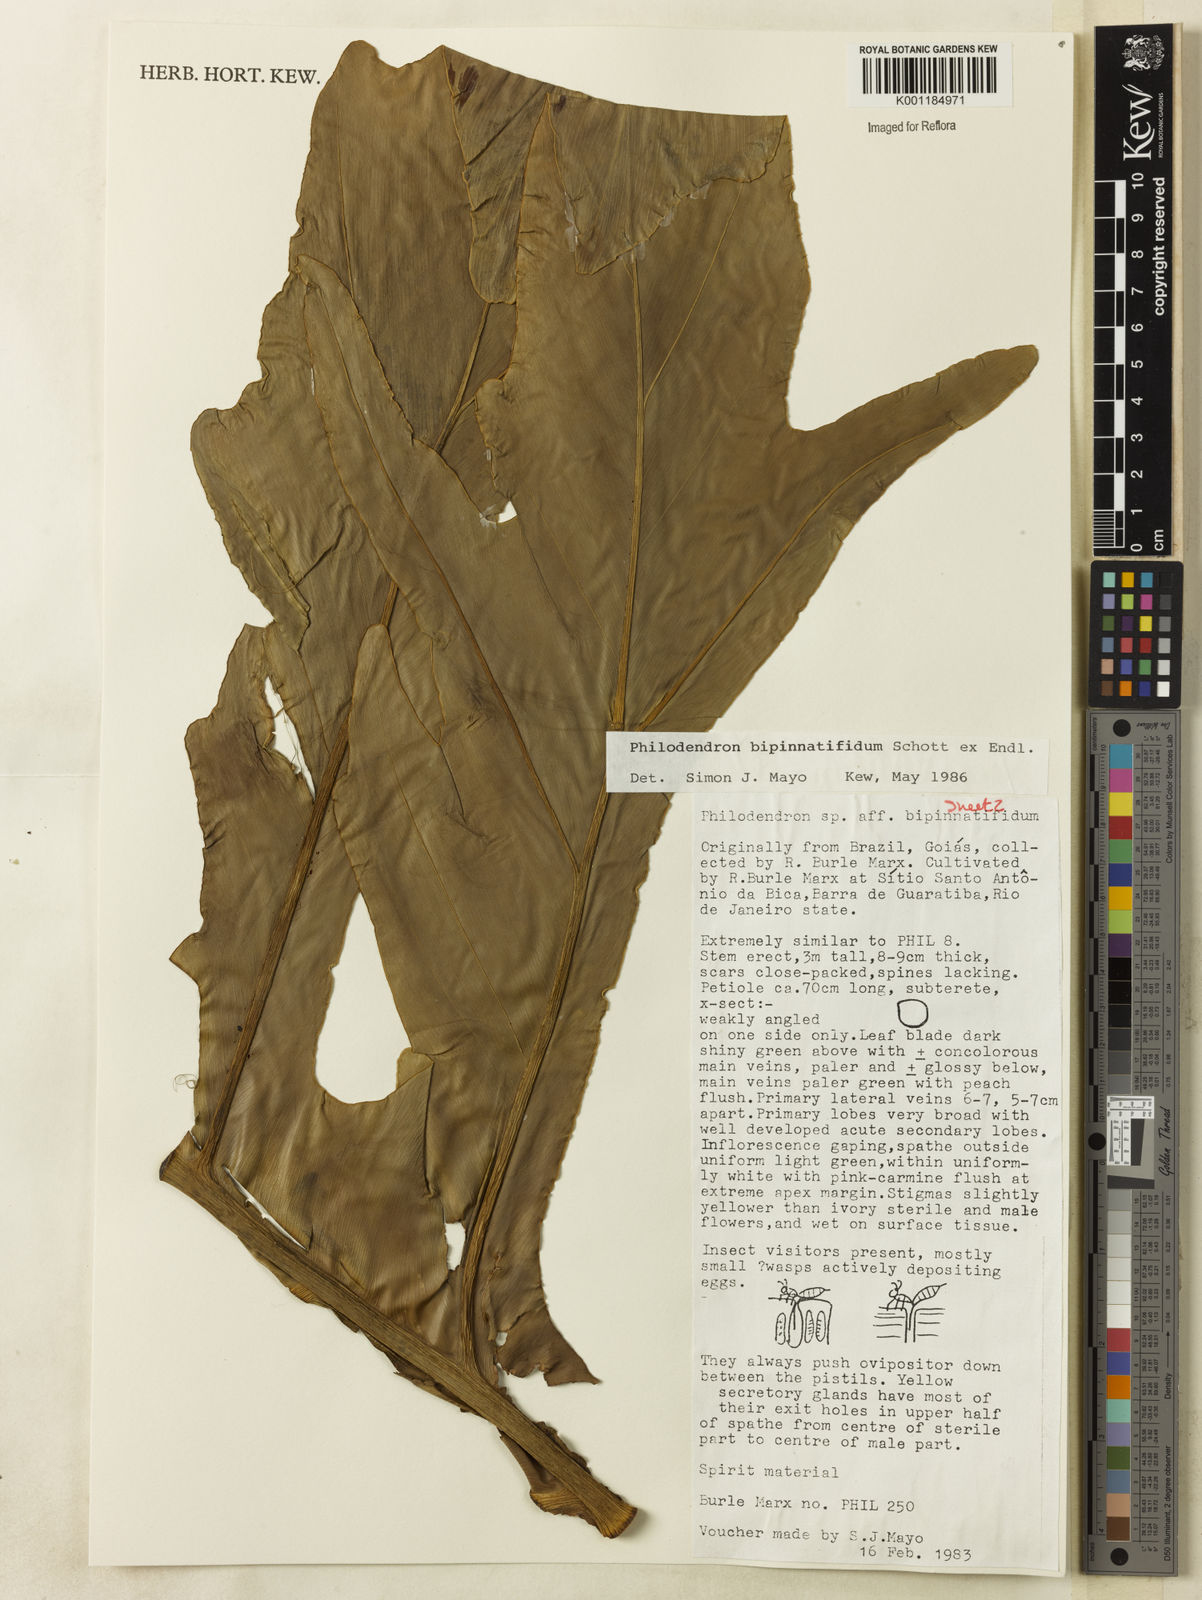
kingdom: Plantae
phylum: Tracheophyta
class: Liliopsida
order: Alismatales
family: Araceae
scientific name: Araceae
